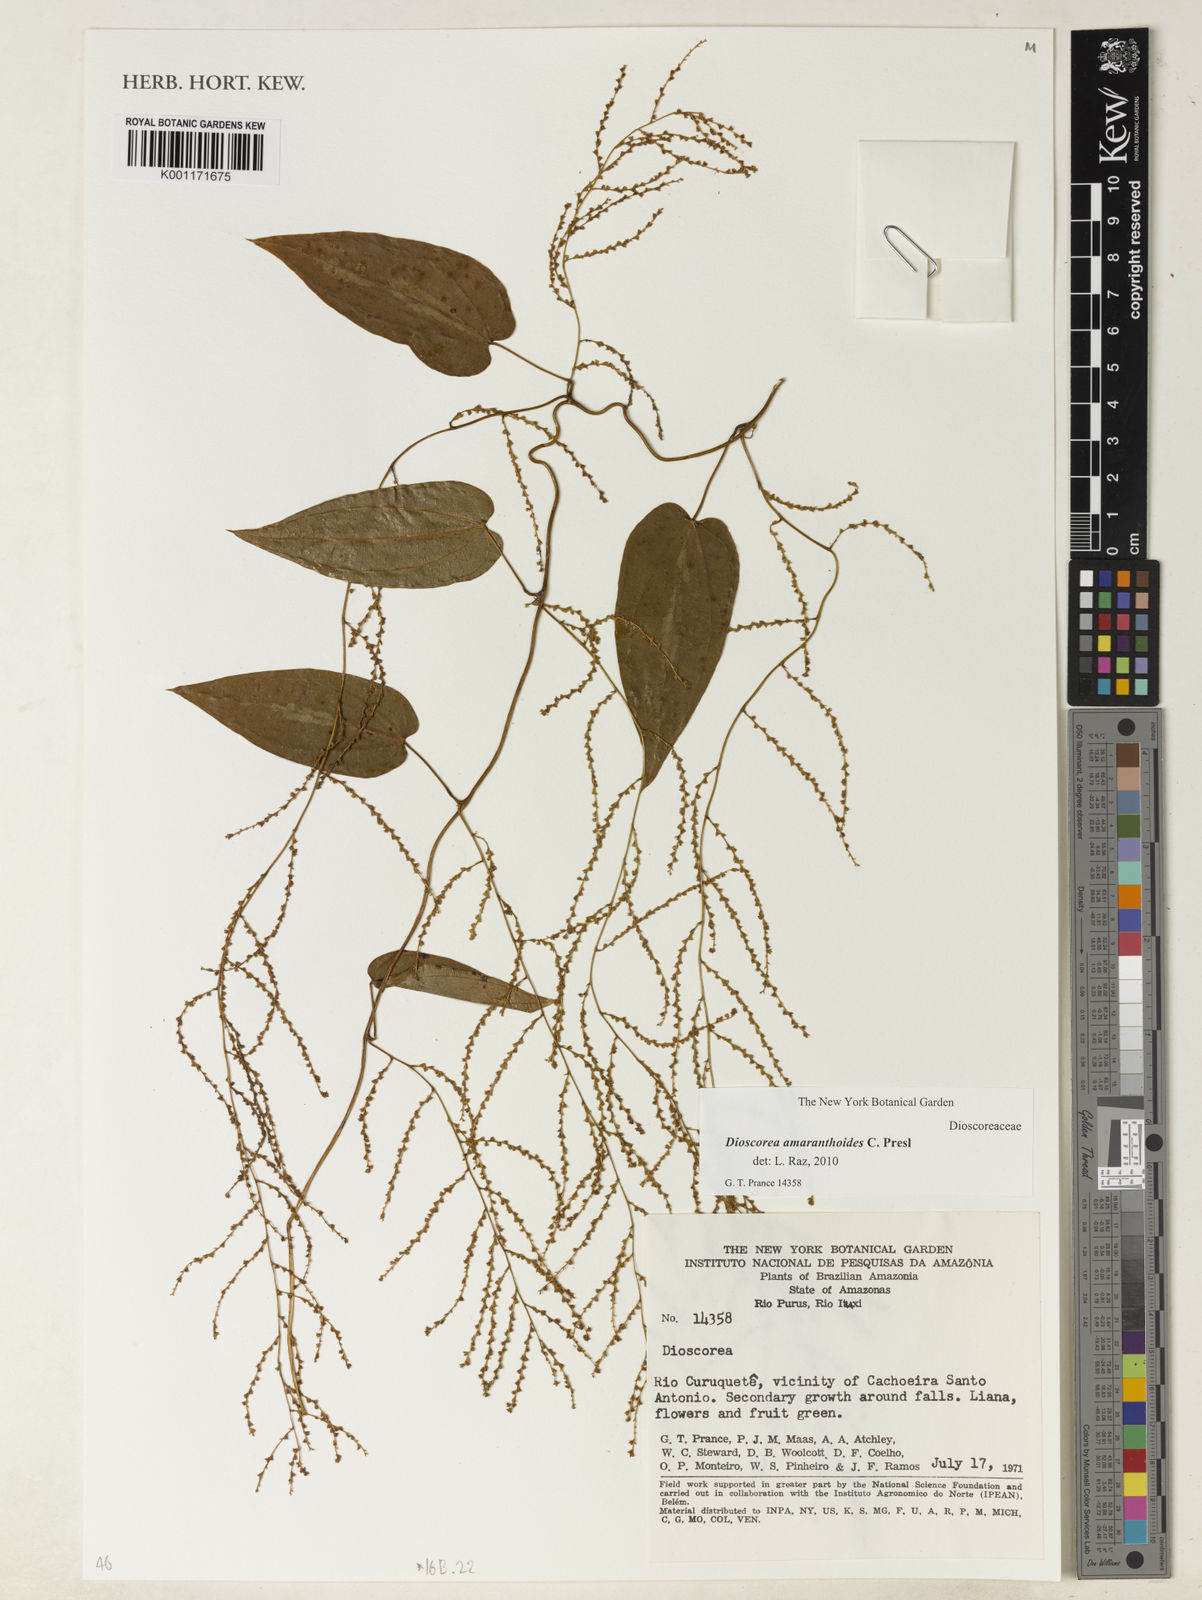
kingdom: Plantae
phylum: Tracheophyta
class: Liliopsida
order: Dioscoreales
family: Dioscoreaceae
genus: Dioscorea
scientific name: Dioscorea amaranthoides
